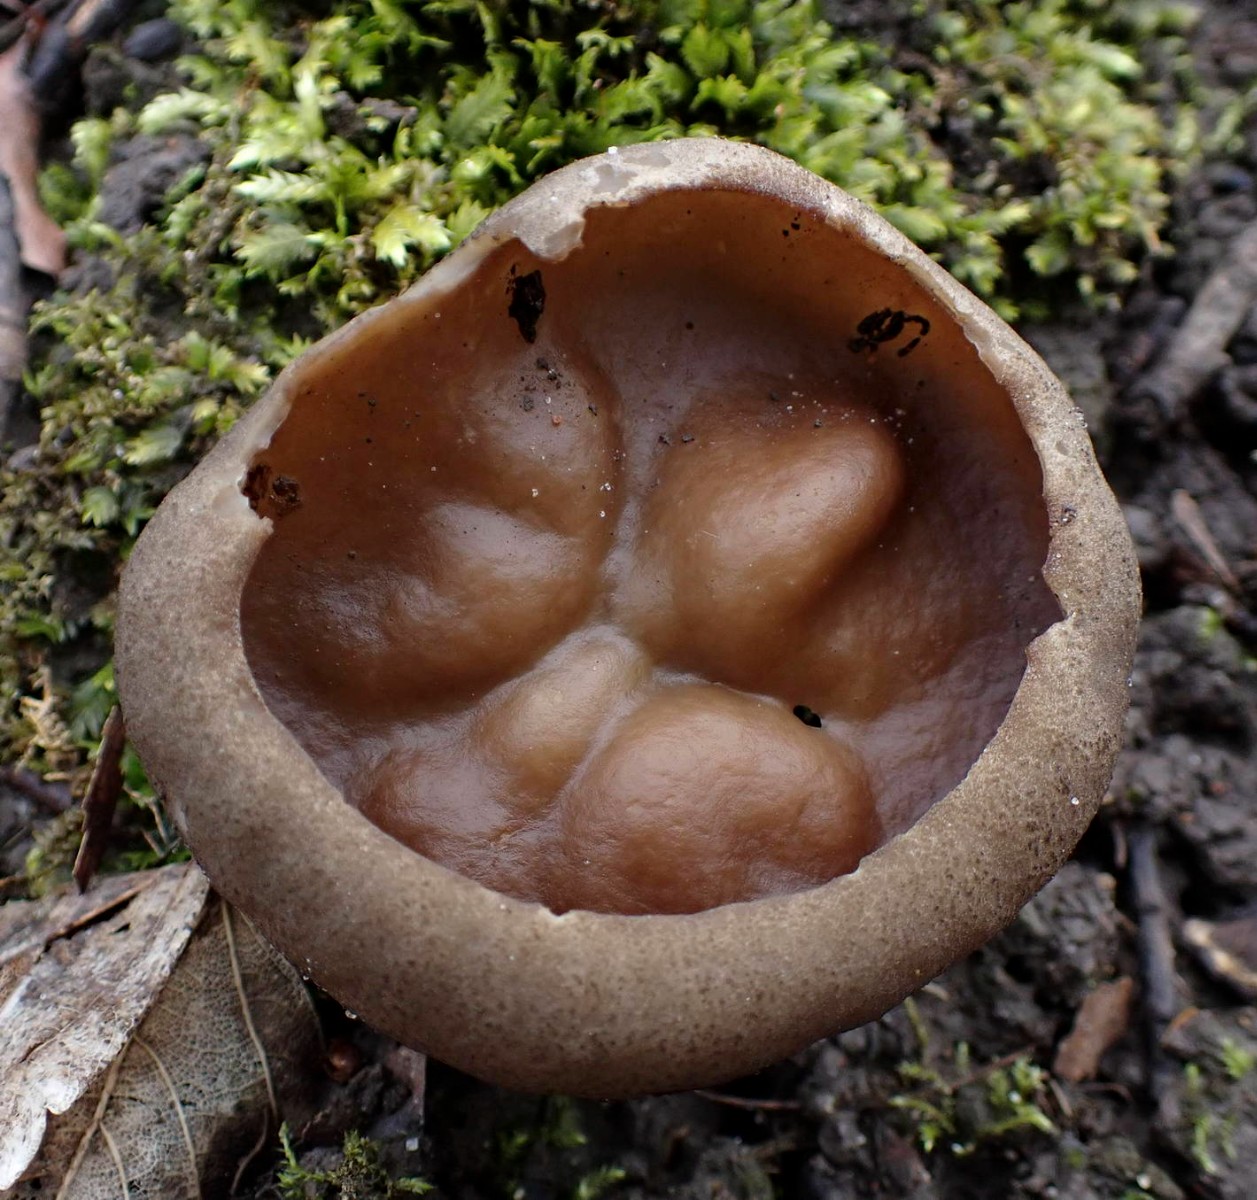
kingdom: Fungi
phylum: Ascomycota
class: Pezizomycetes
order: Pezizales
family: Morchellaceae
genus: Disciotis
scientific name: Disciotis venosa
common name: klor-bægermorkel
